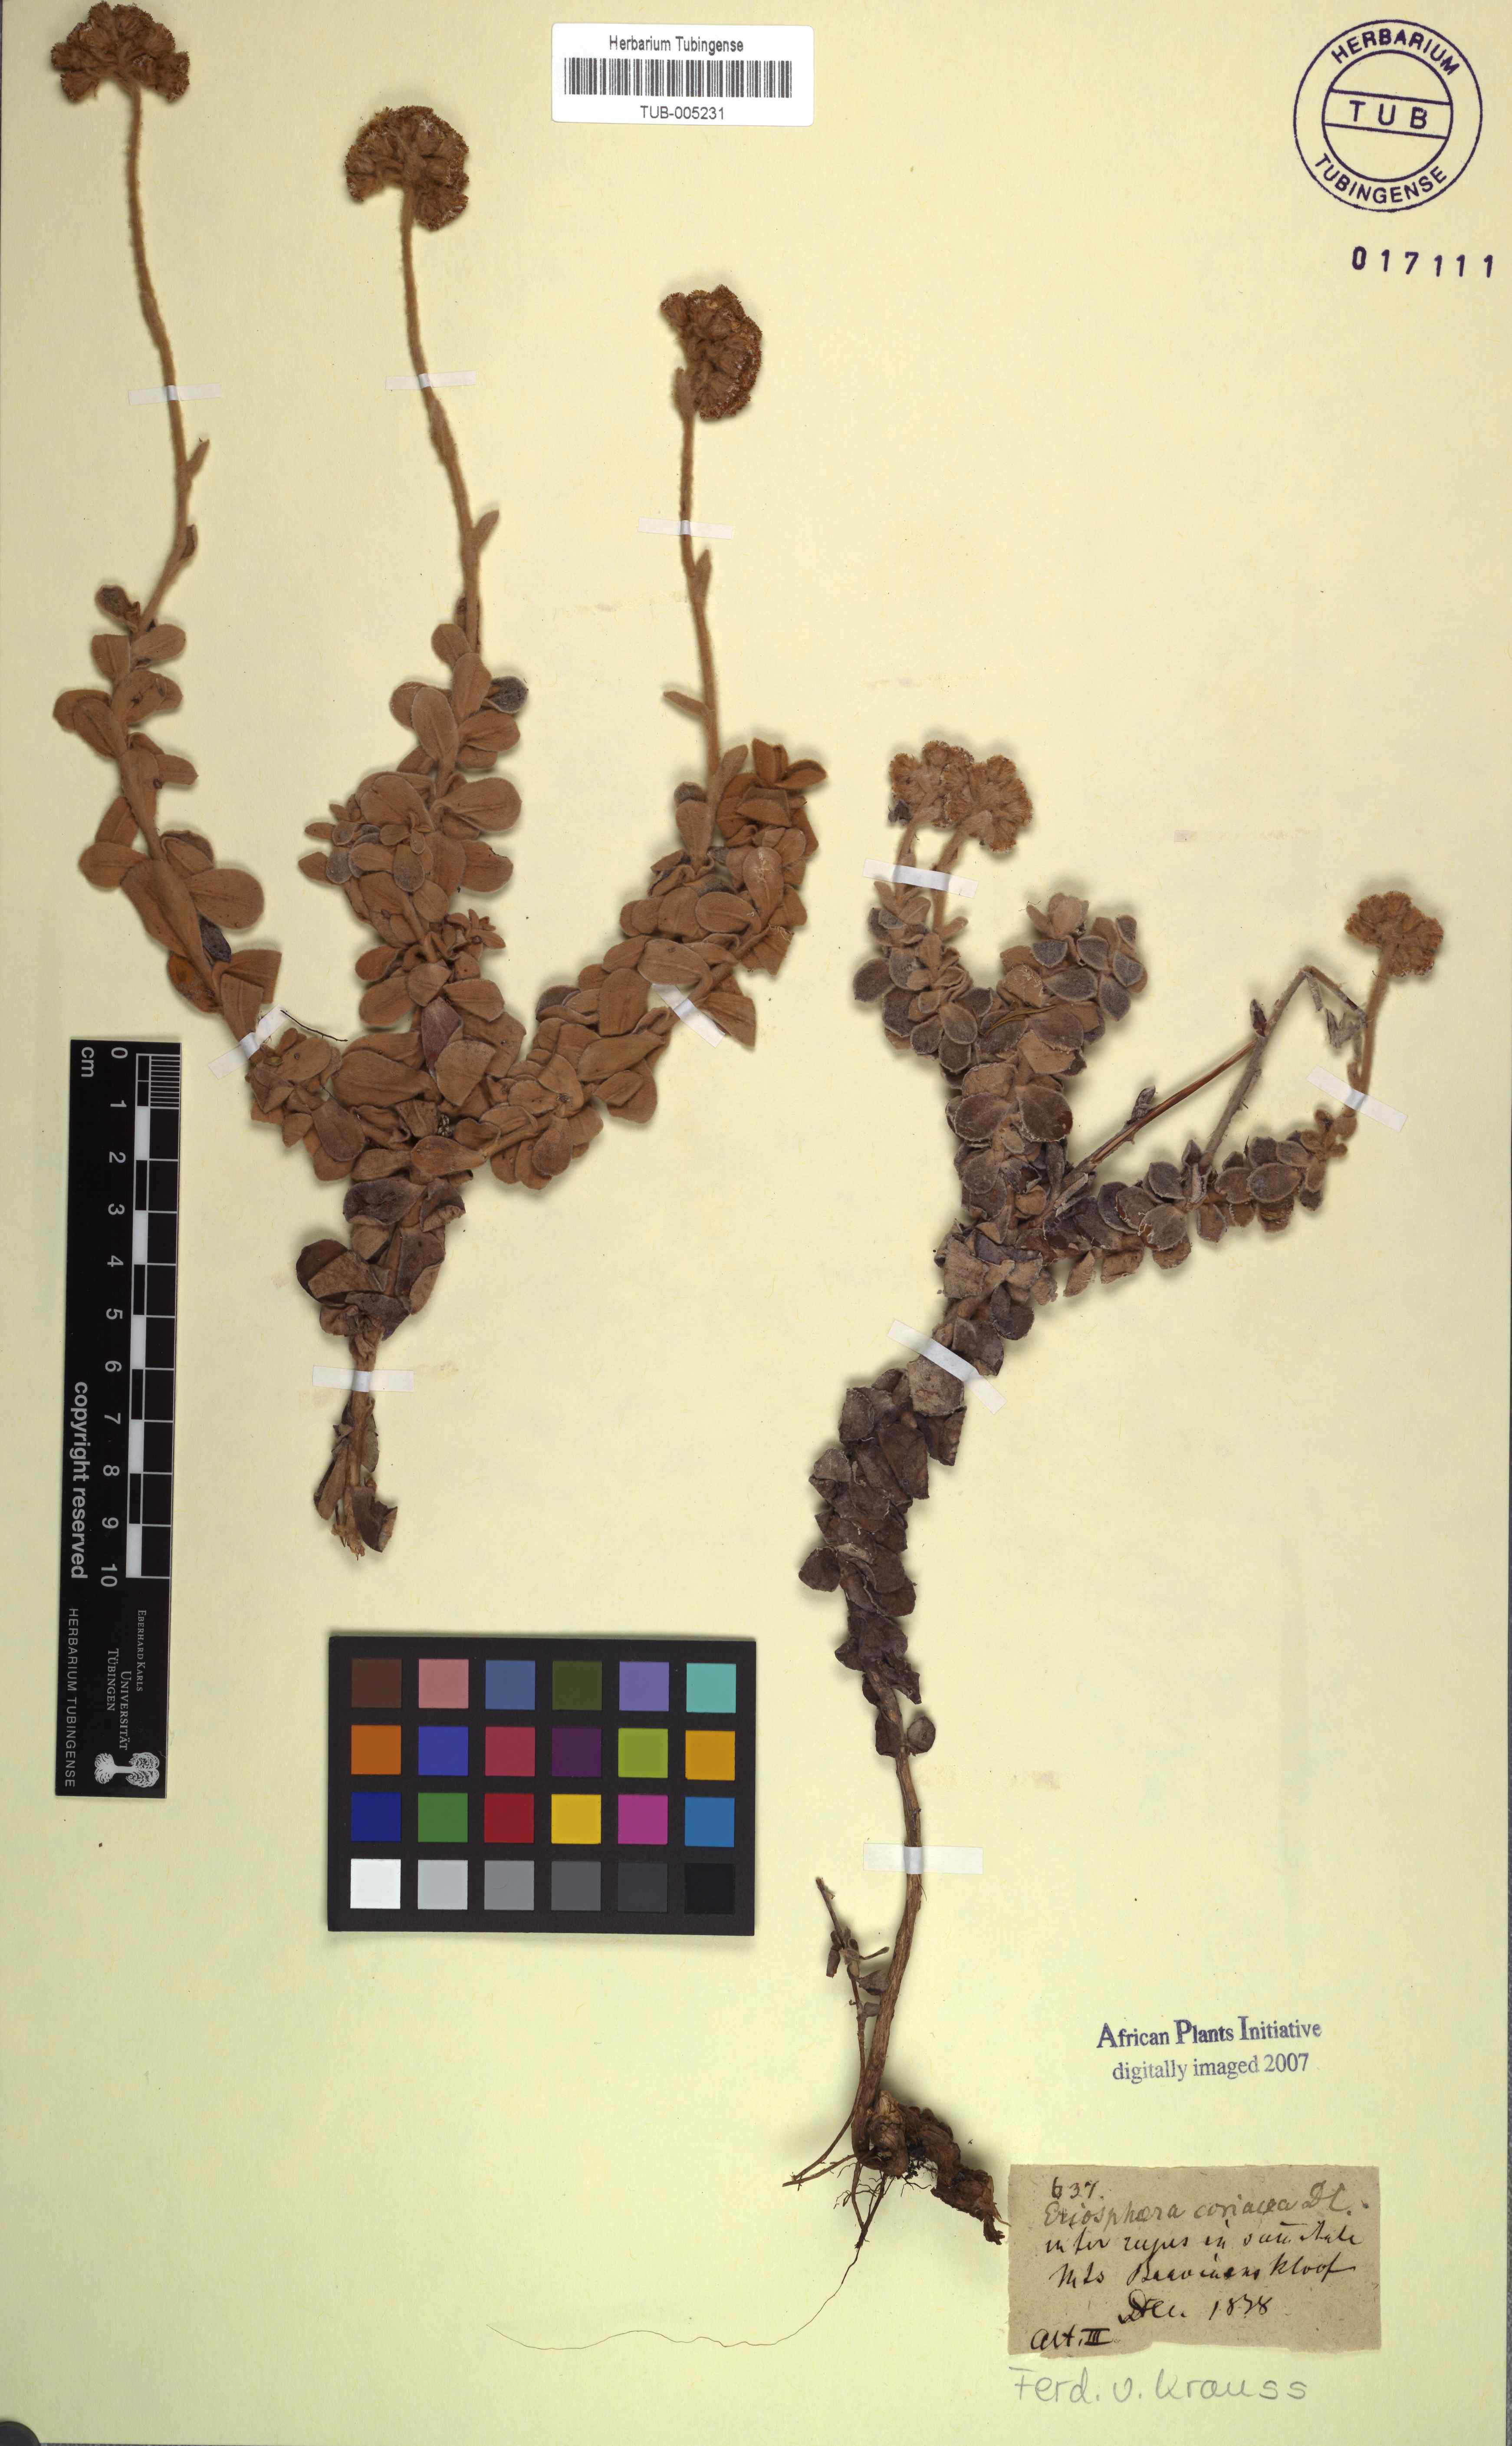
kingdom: Plantae
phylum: Tracheophyta
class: Magnoliopsida
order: Asterales
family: Asteraceae
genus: Helichrysum
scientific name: Helichrysum rotundatum
